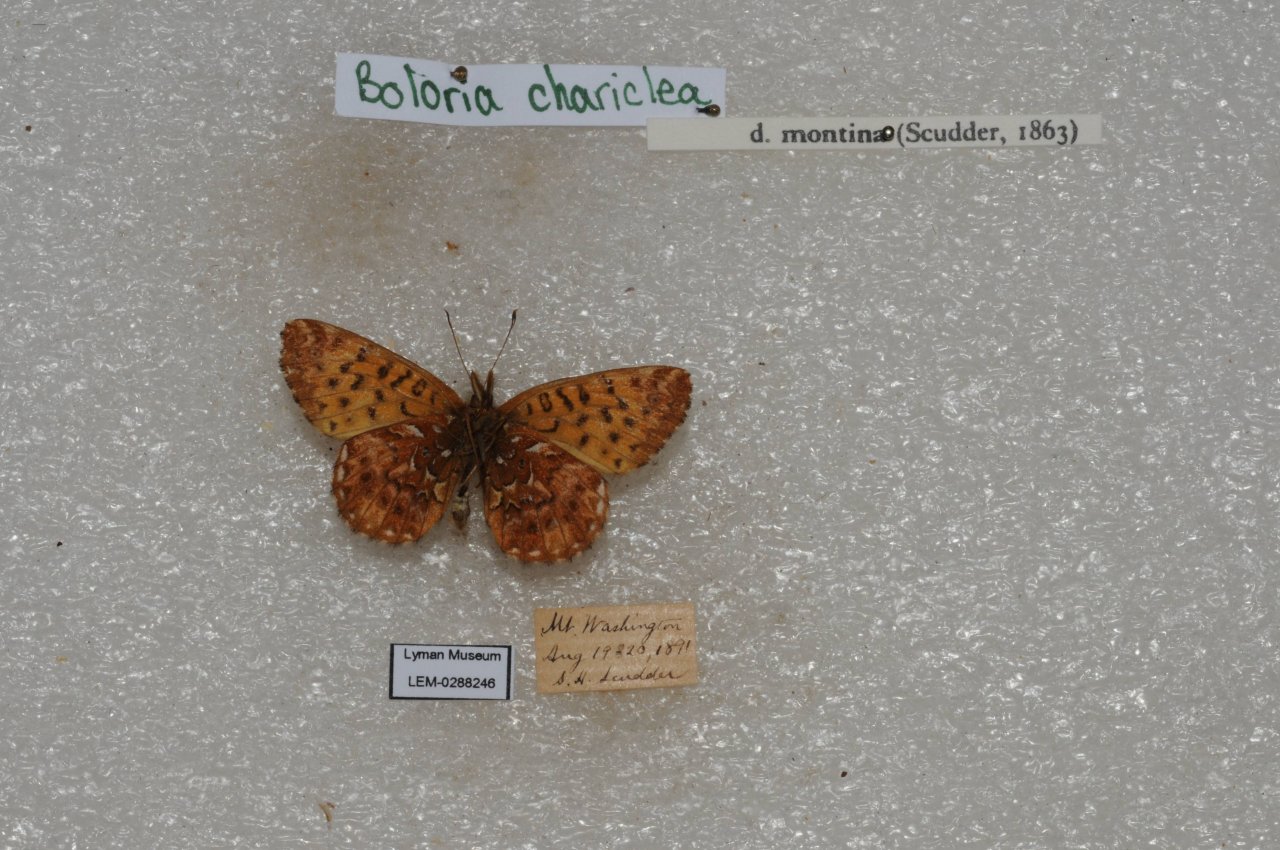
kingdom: Animalia
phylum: Arthropoda
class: Insecta
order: Lepidoptera
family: Nymphalidae
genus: Boloria
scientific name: Boloria chariclea
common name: Arctic Fritillary
